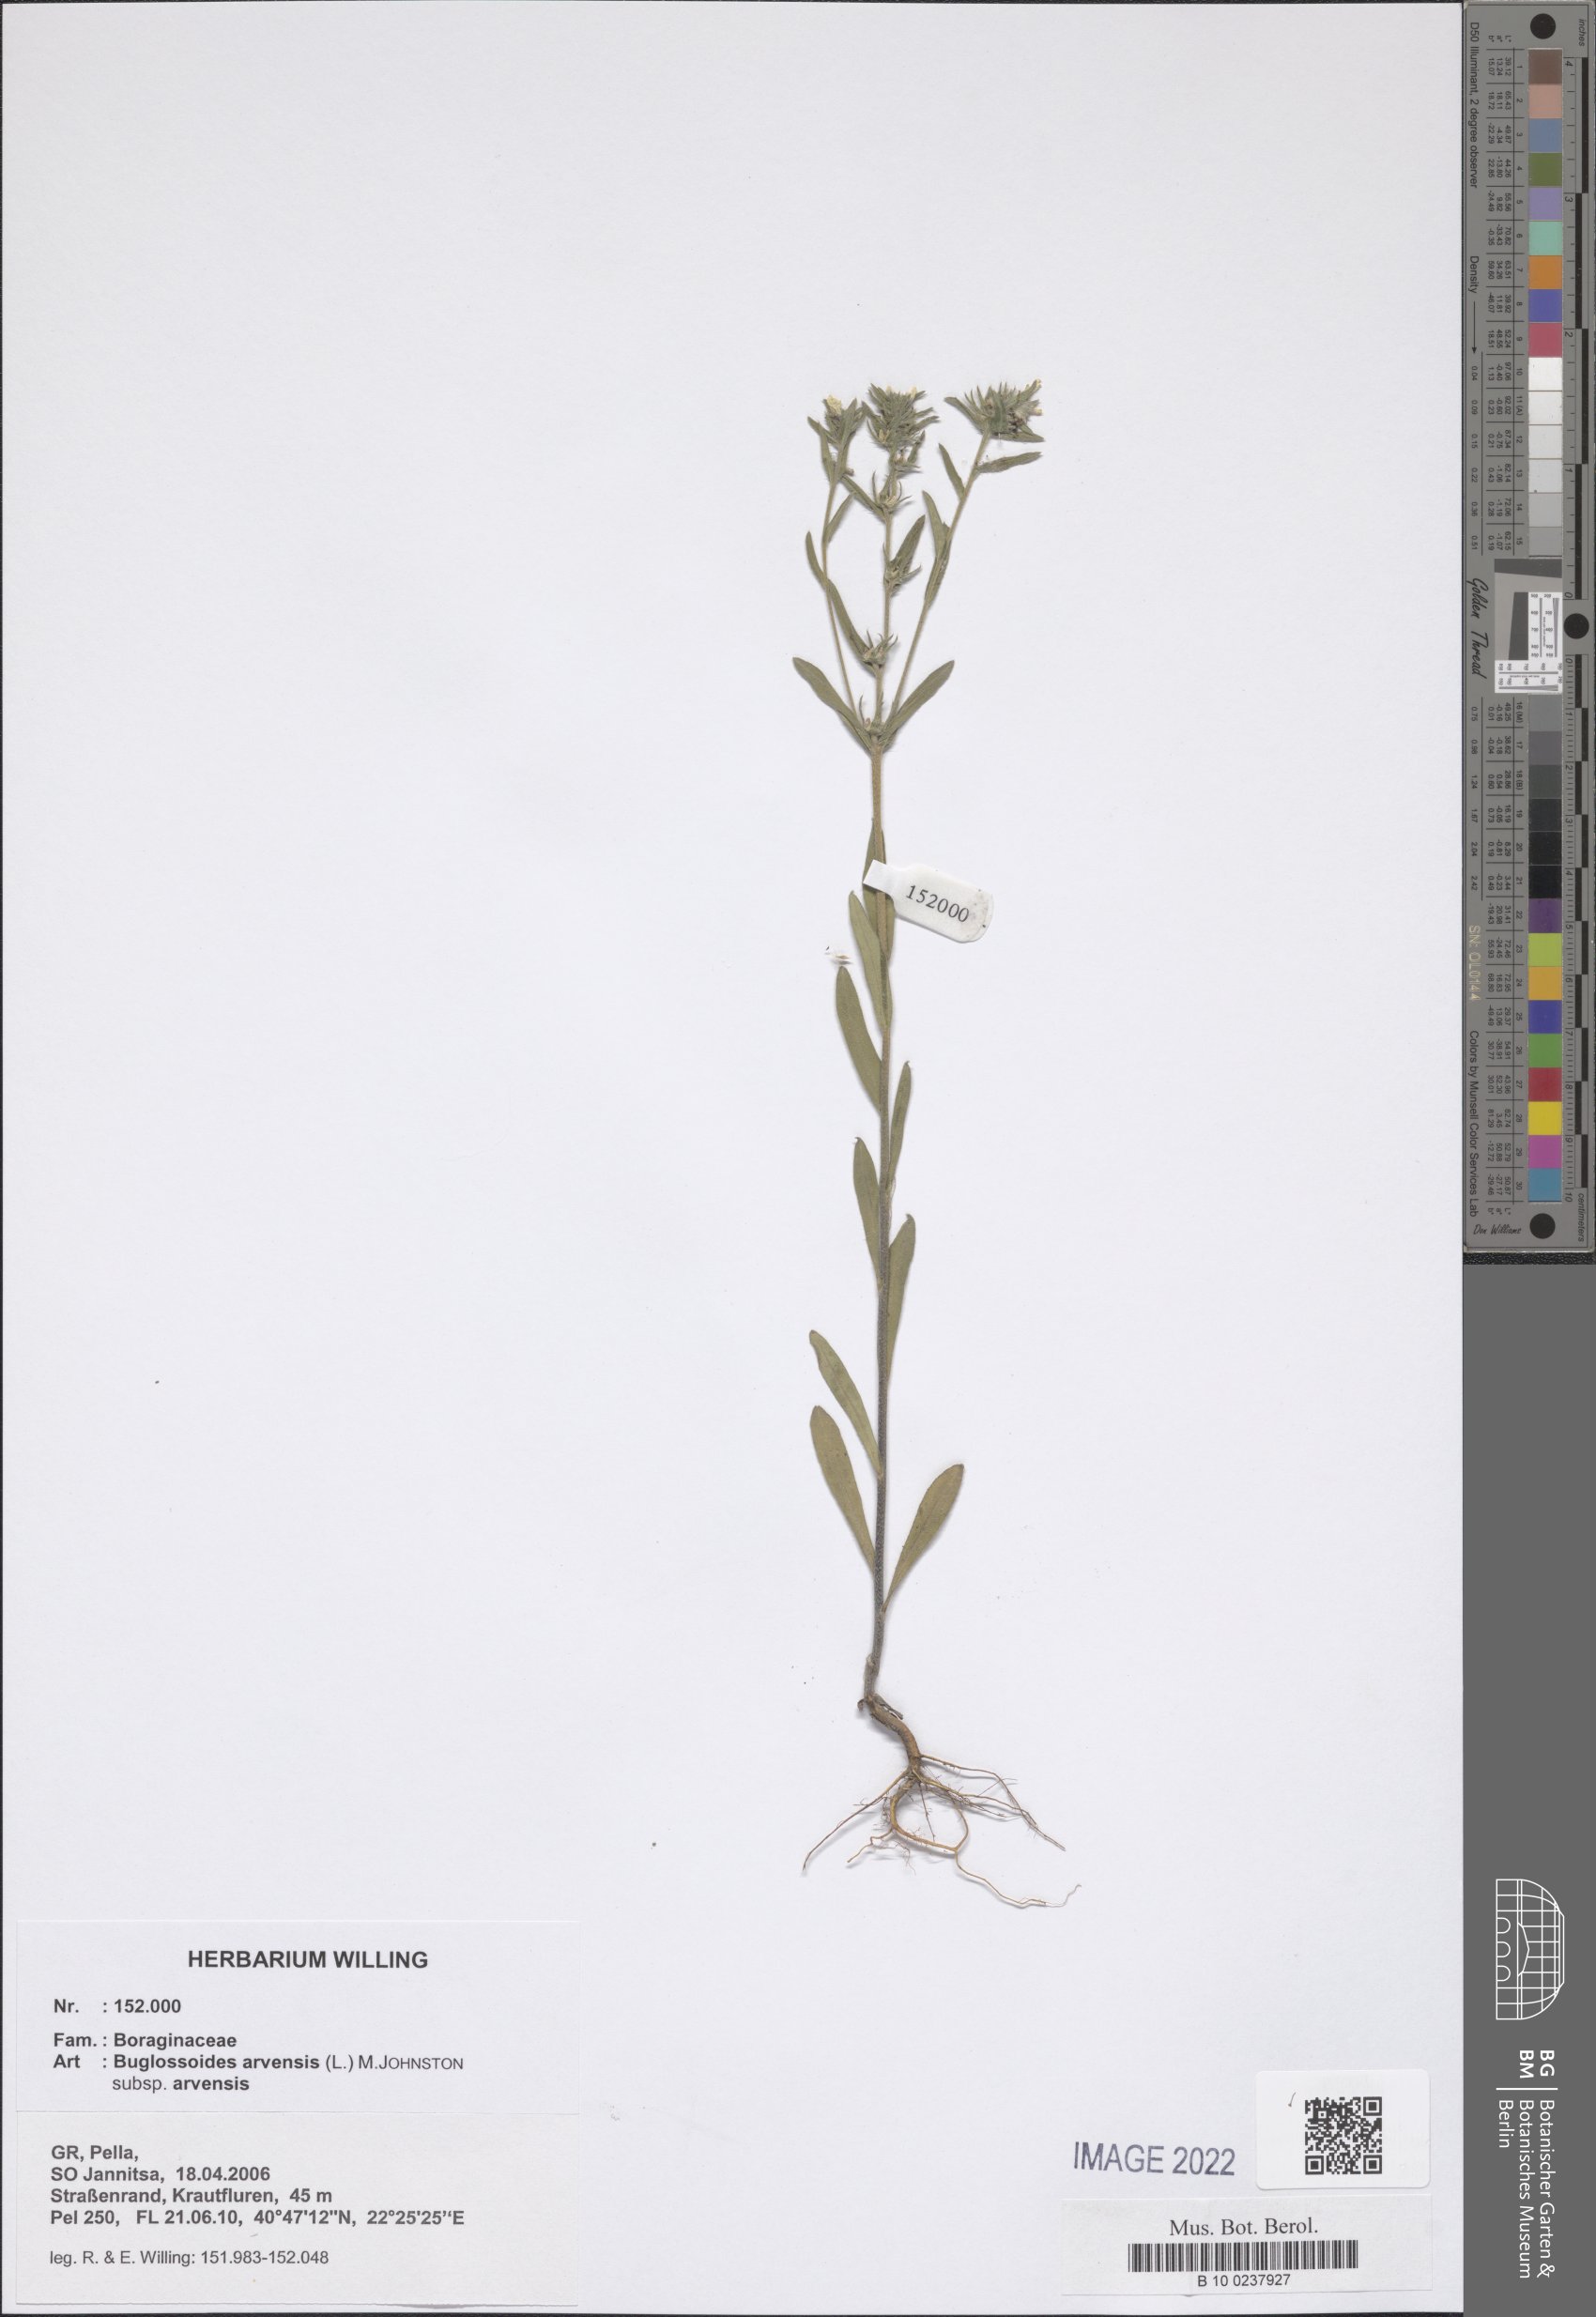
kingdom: Plantae
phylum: Tracheophyta
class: Magnoliopsida
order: Boraginales
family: Boraginaceae
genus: Buglossoides
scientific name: Buglossoides arvensis
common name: Corn gromwell
